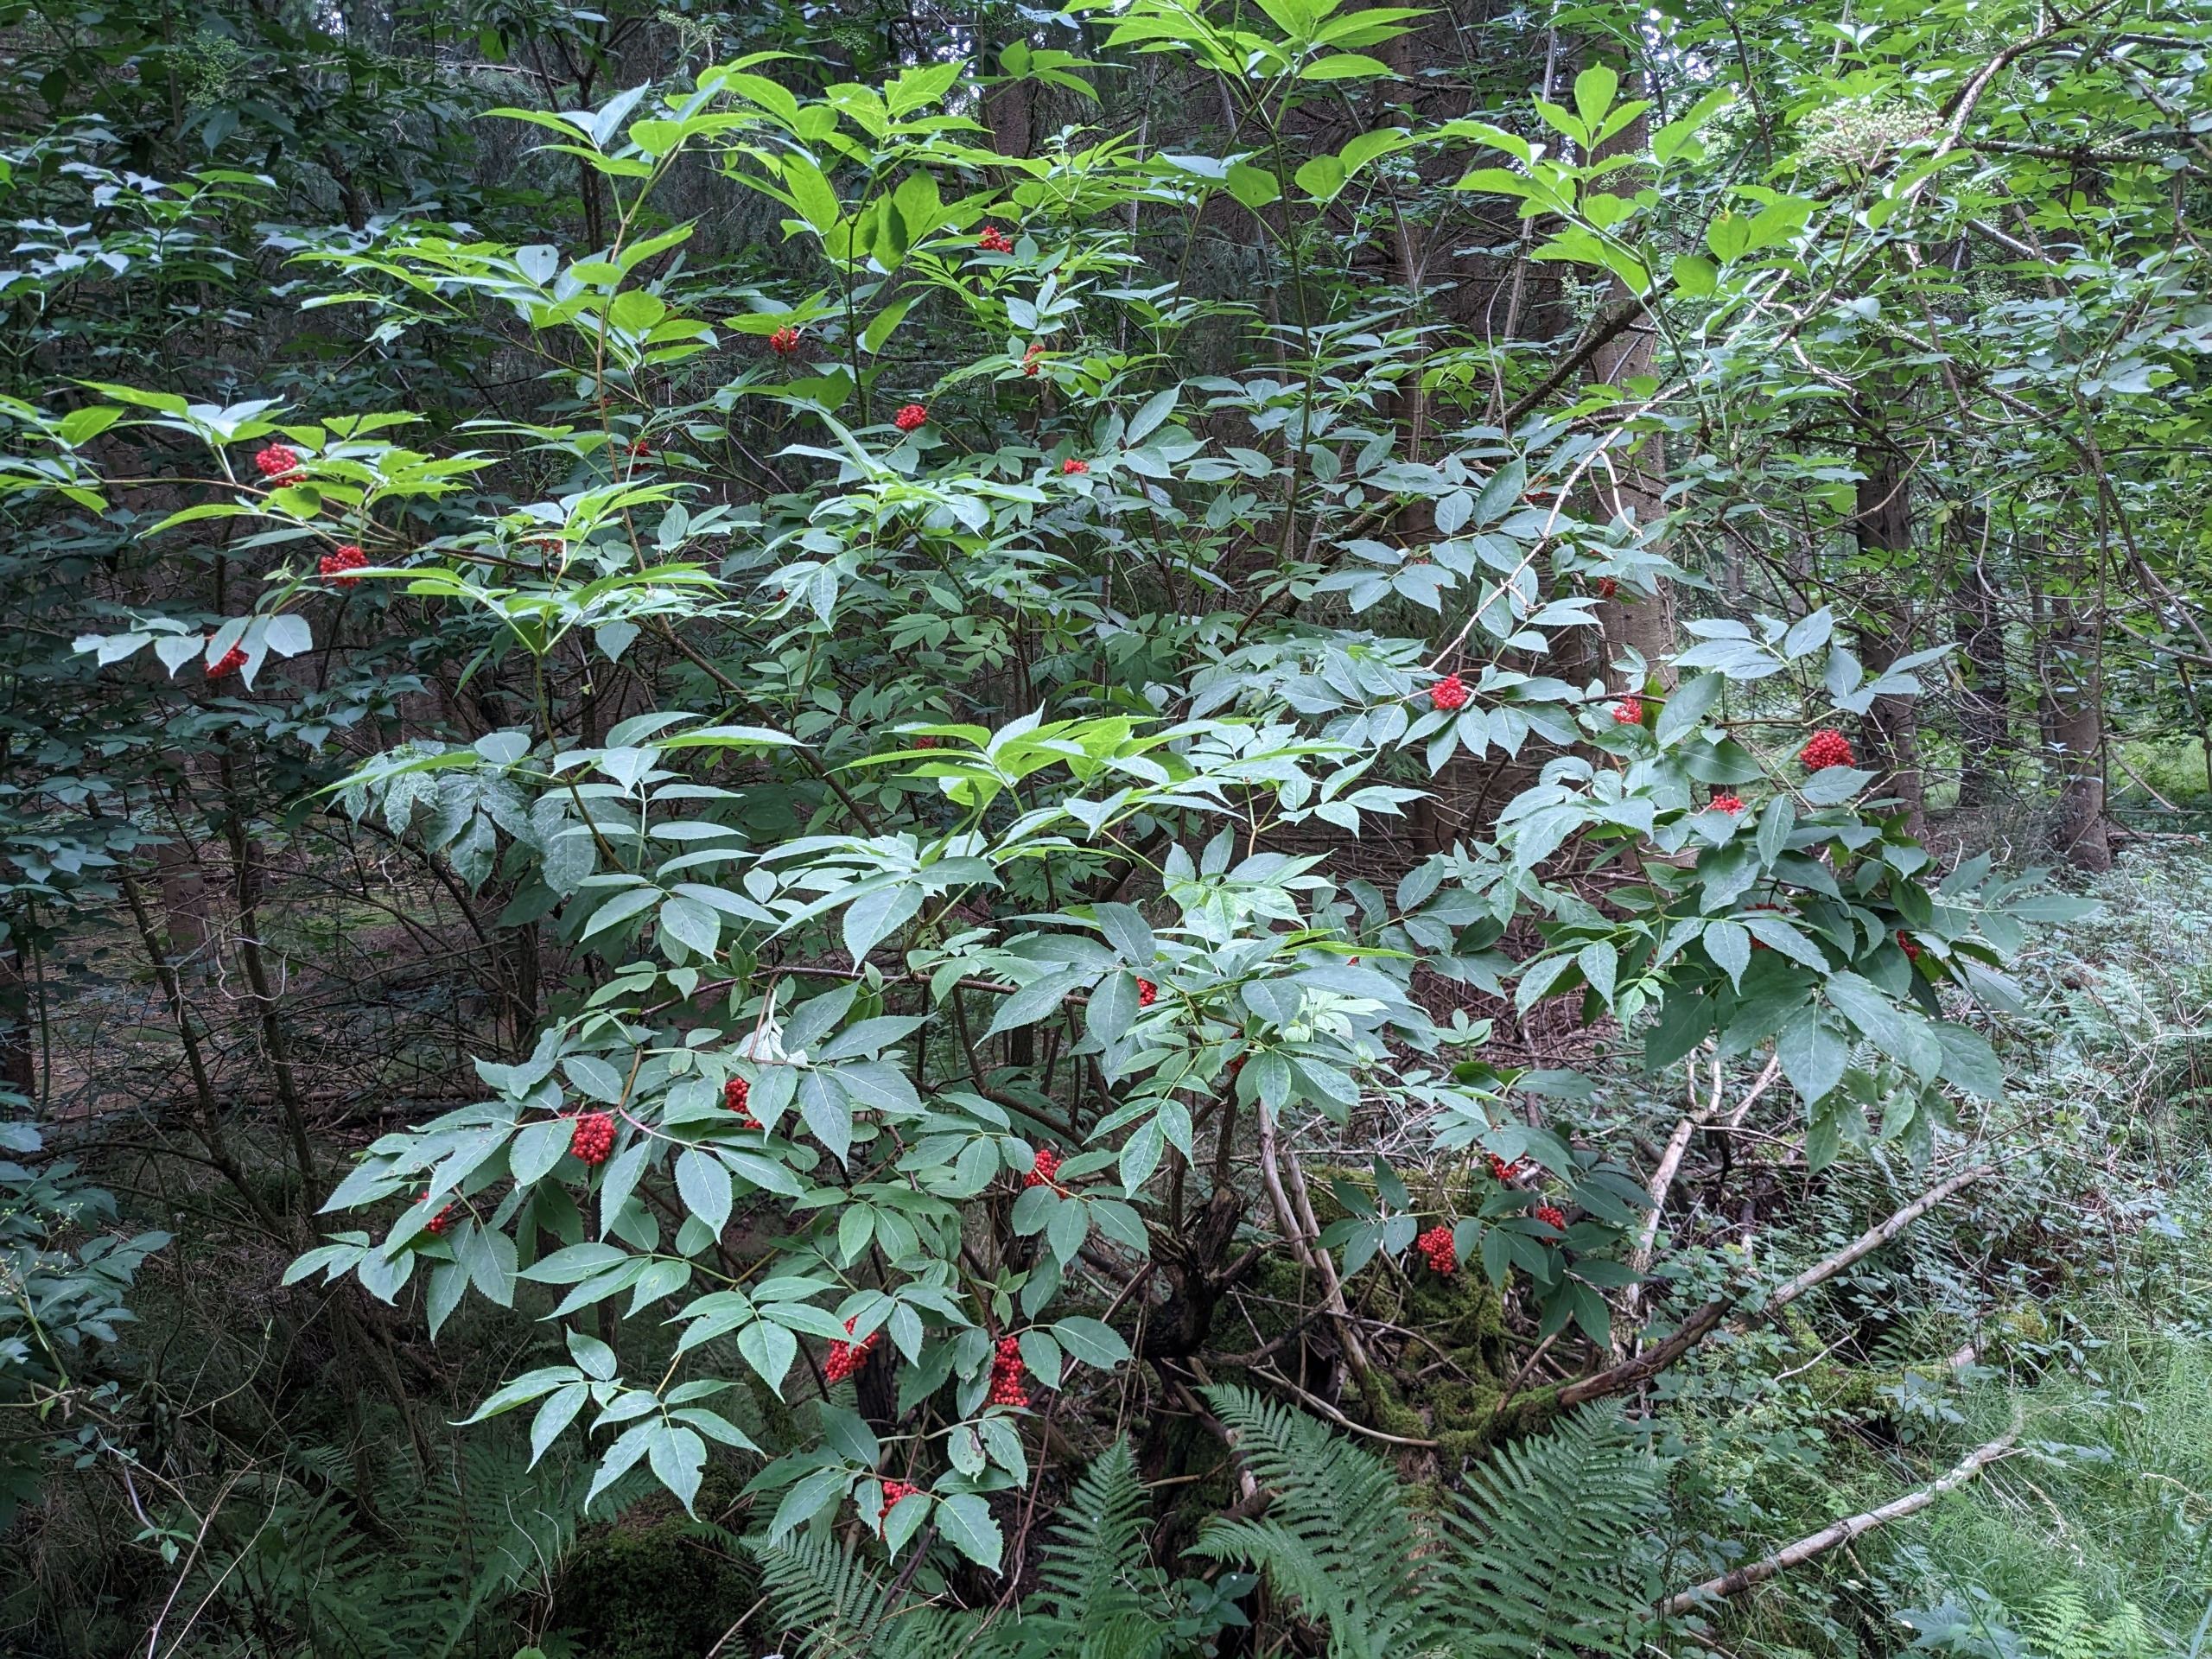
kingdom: Plantae
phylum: Tracheophyta
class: Magnoliopsida
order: Dipsacales
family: Viburnaceae
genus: Sambucus
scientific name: Sambucus racemosa
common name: Drue-hyld
